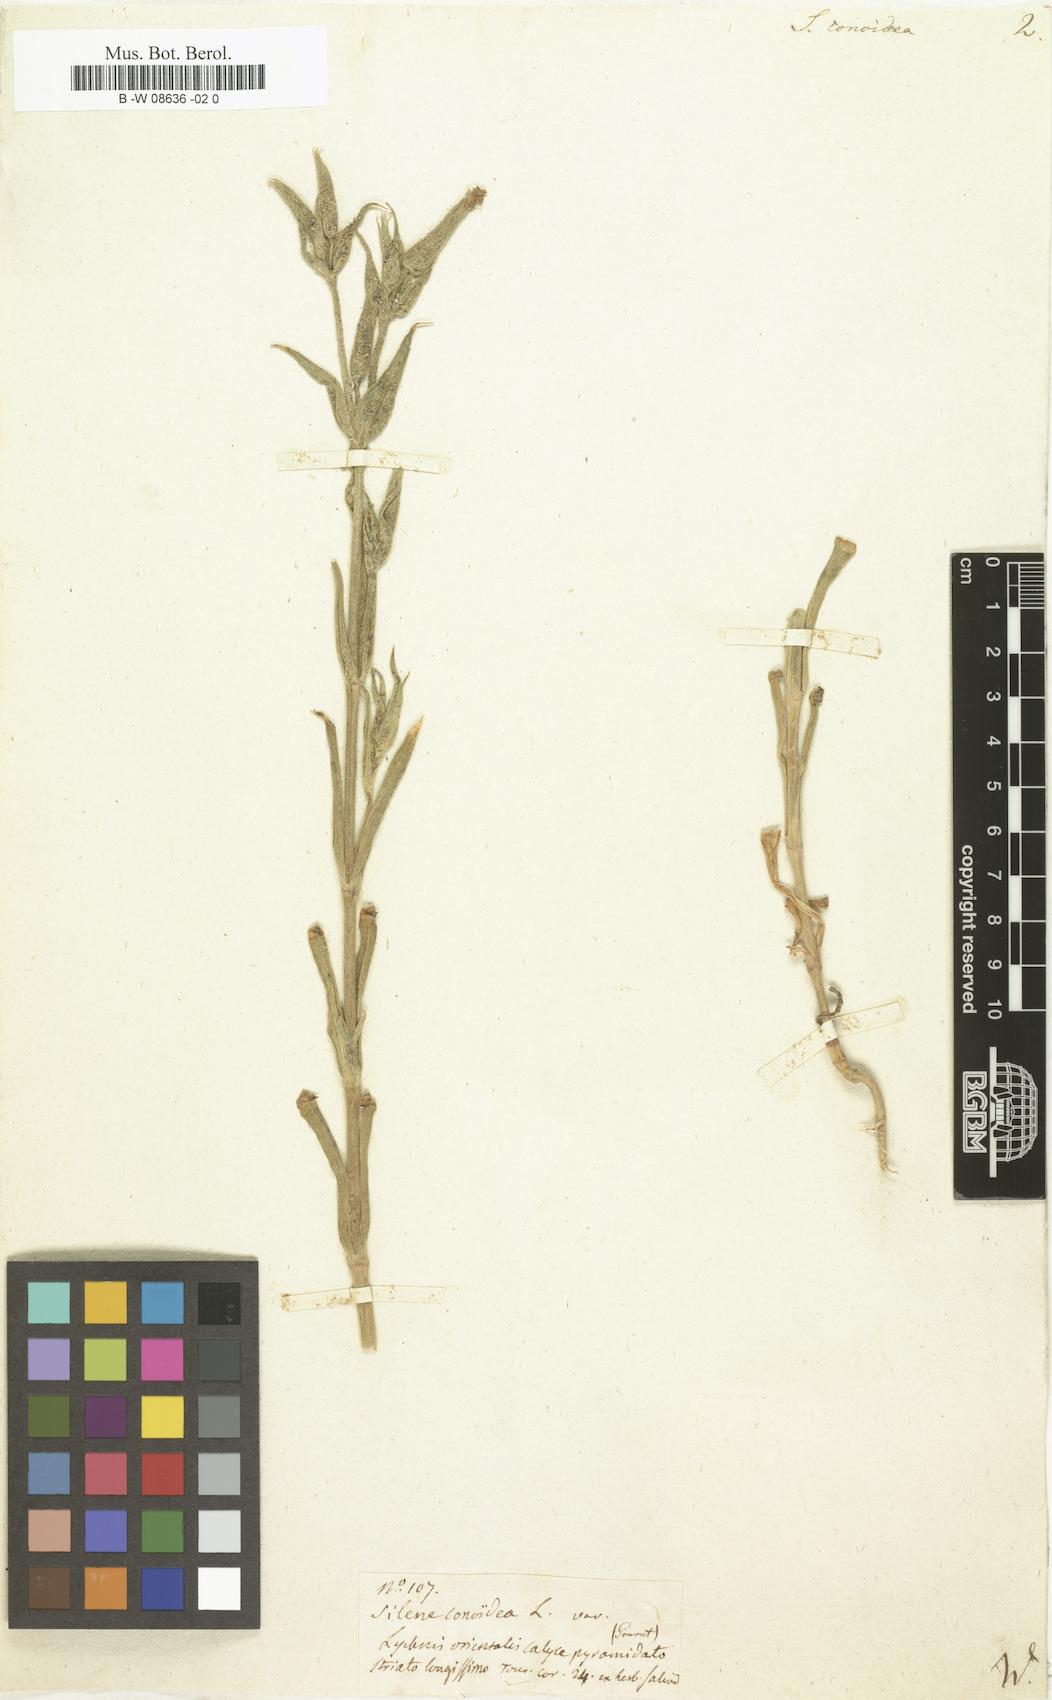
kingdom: Plantae
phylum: Tracheophyta
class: Magnoliopsida
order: Caryophyllales
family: Caryophyllaceae
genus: Silene
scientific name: Silene conoidea
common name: Weed silene
